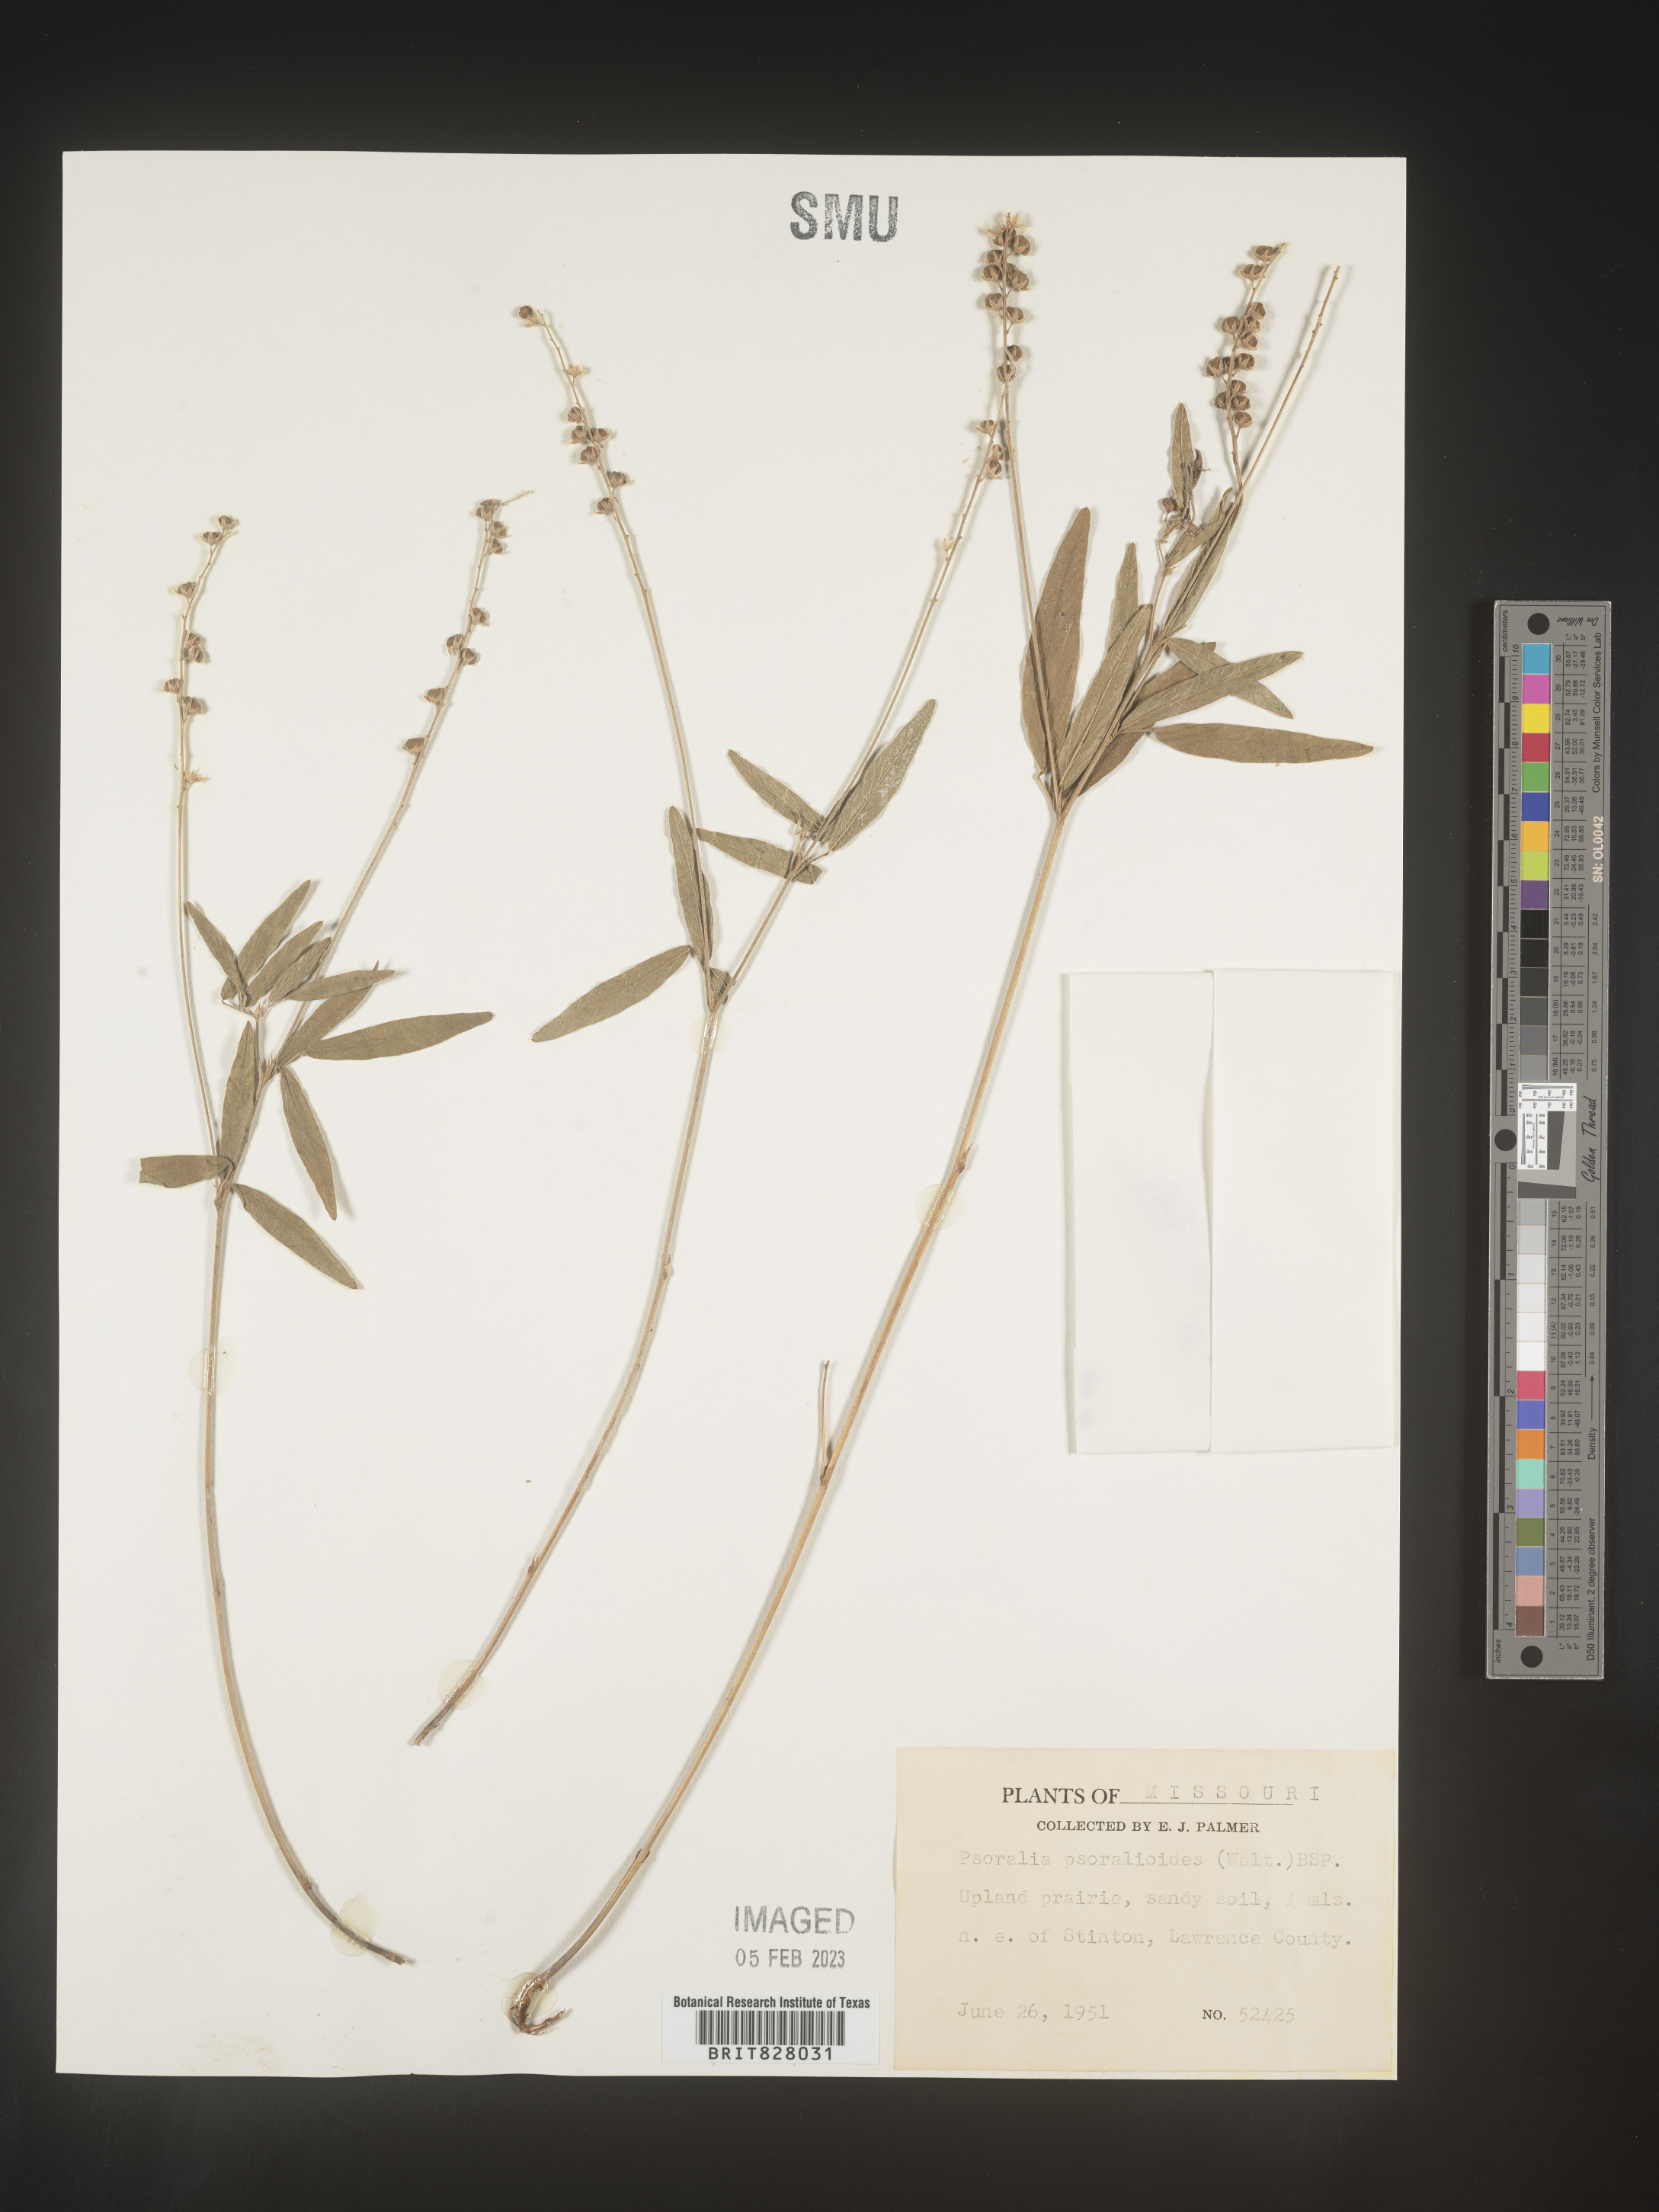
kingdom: Plantae
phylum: Tracheophyta
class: Magnoliopsida
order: Fabales
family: Fabaceae
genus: Orbexilum
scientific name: Orbexilum pedunculatum
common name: Sampson's snakeroot
